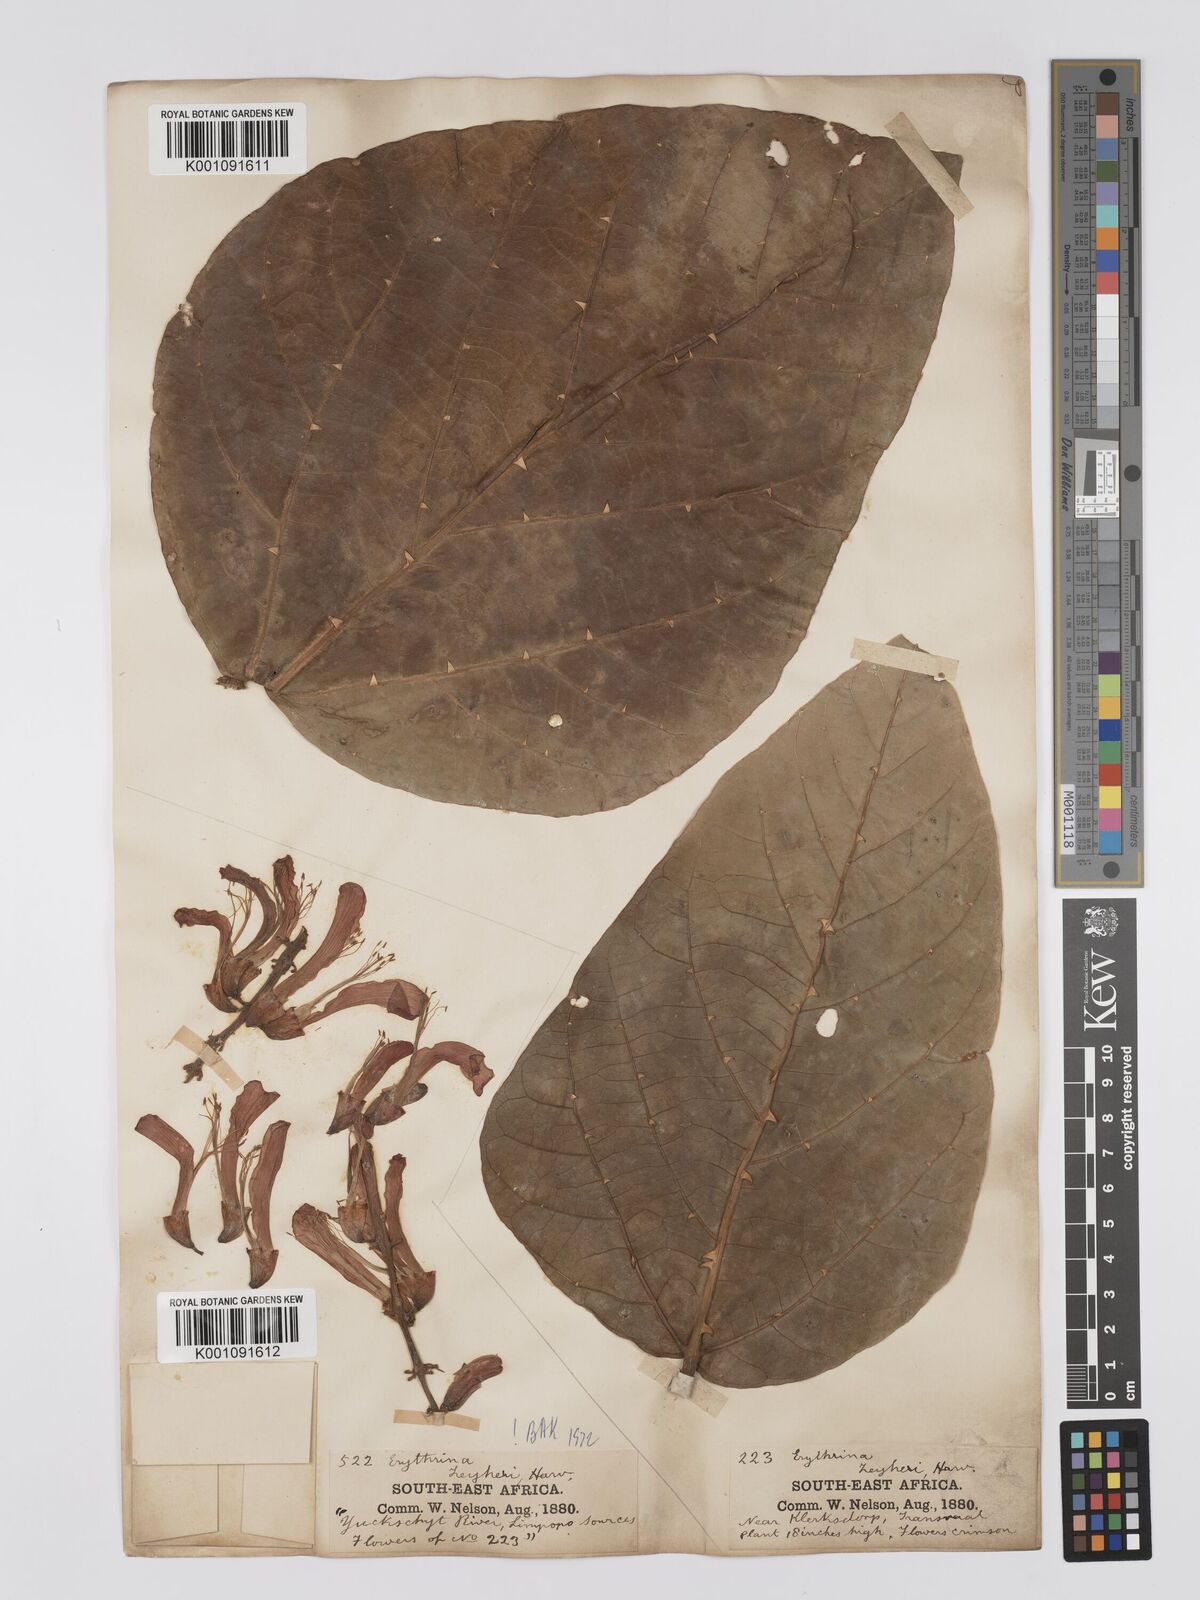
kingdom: Plantae
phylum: Tracheophyta
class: Magnoliopsida
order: Fabales
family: Fabaceae
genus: Erythrina
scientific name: Erythrina zeyheri
